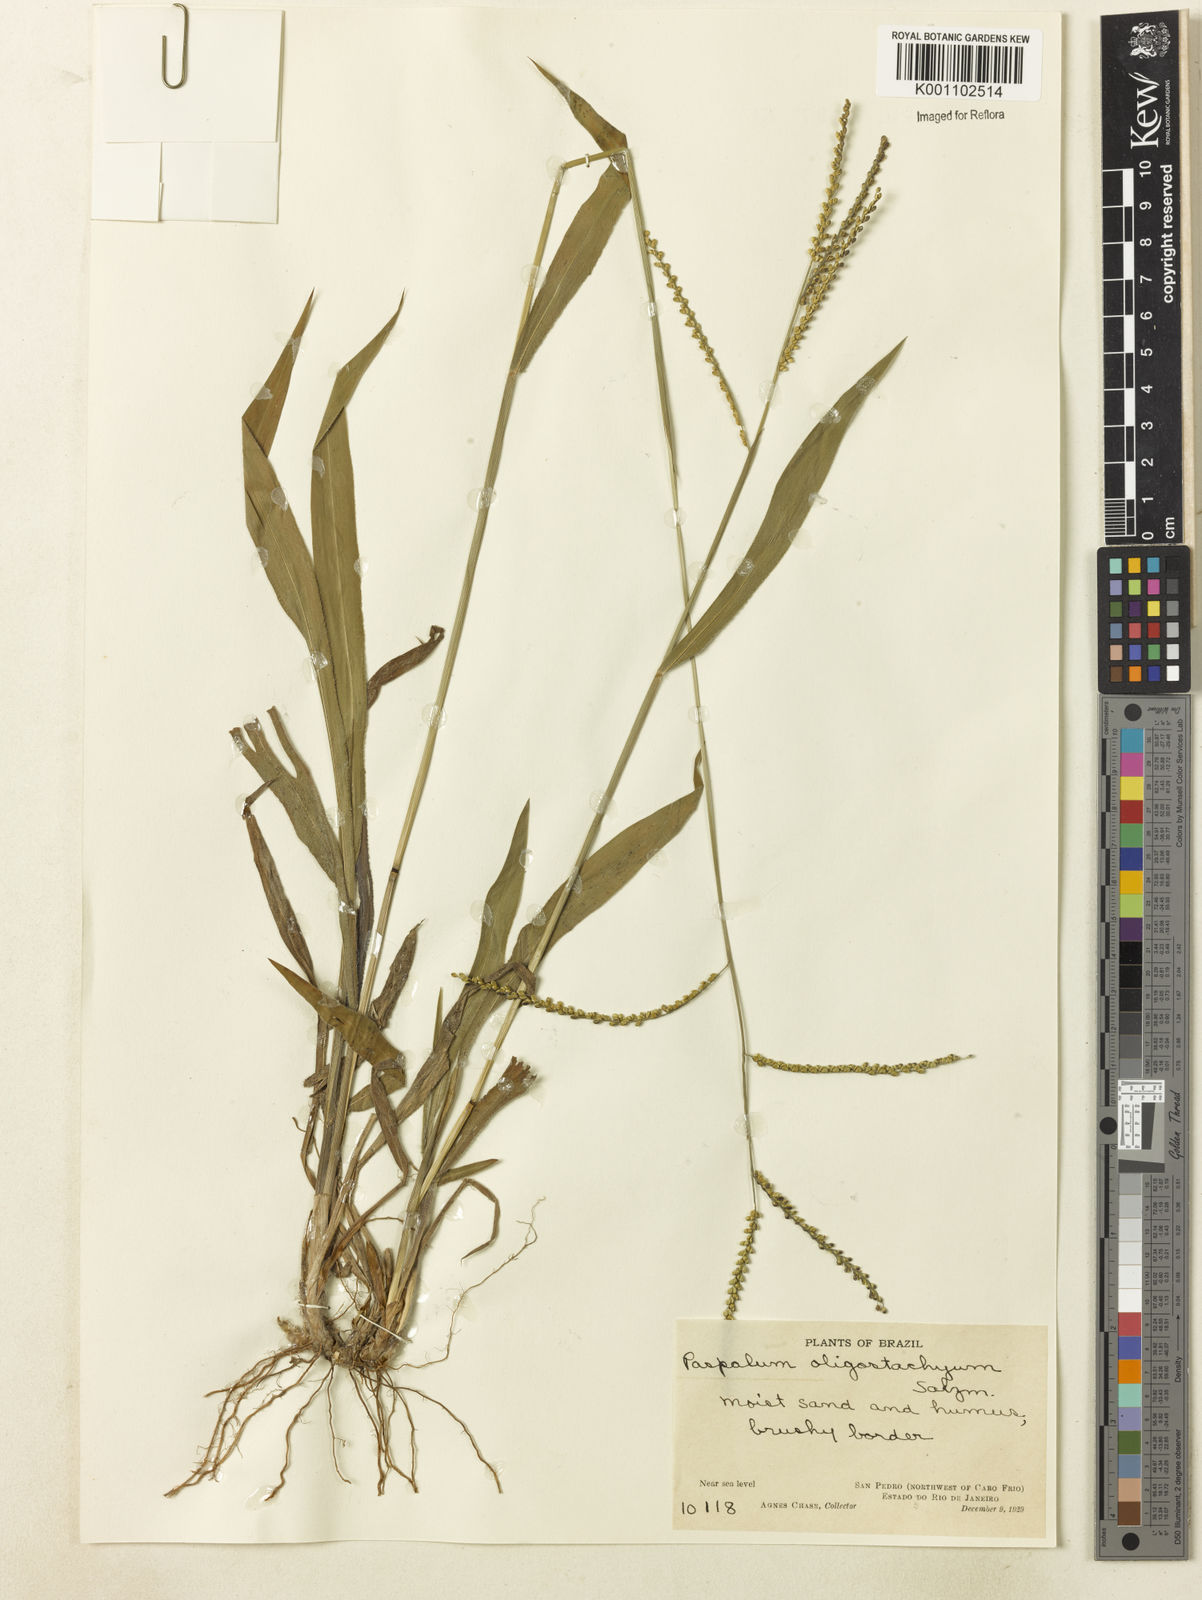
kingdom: Plantae
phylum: Tracheophyta
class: Liliopsida
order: Poales
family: Poaceae
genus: Paspalum
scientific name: Paspalum oligostachyum
